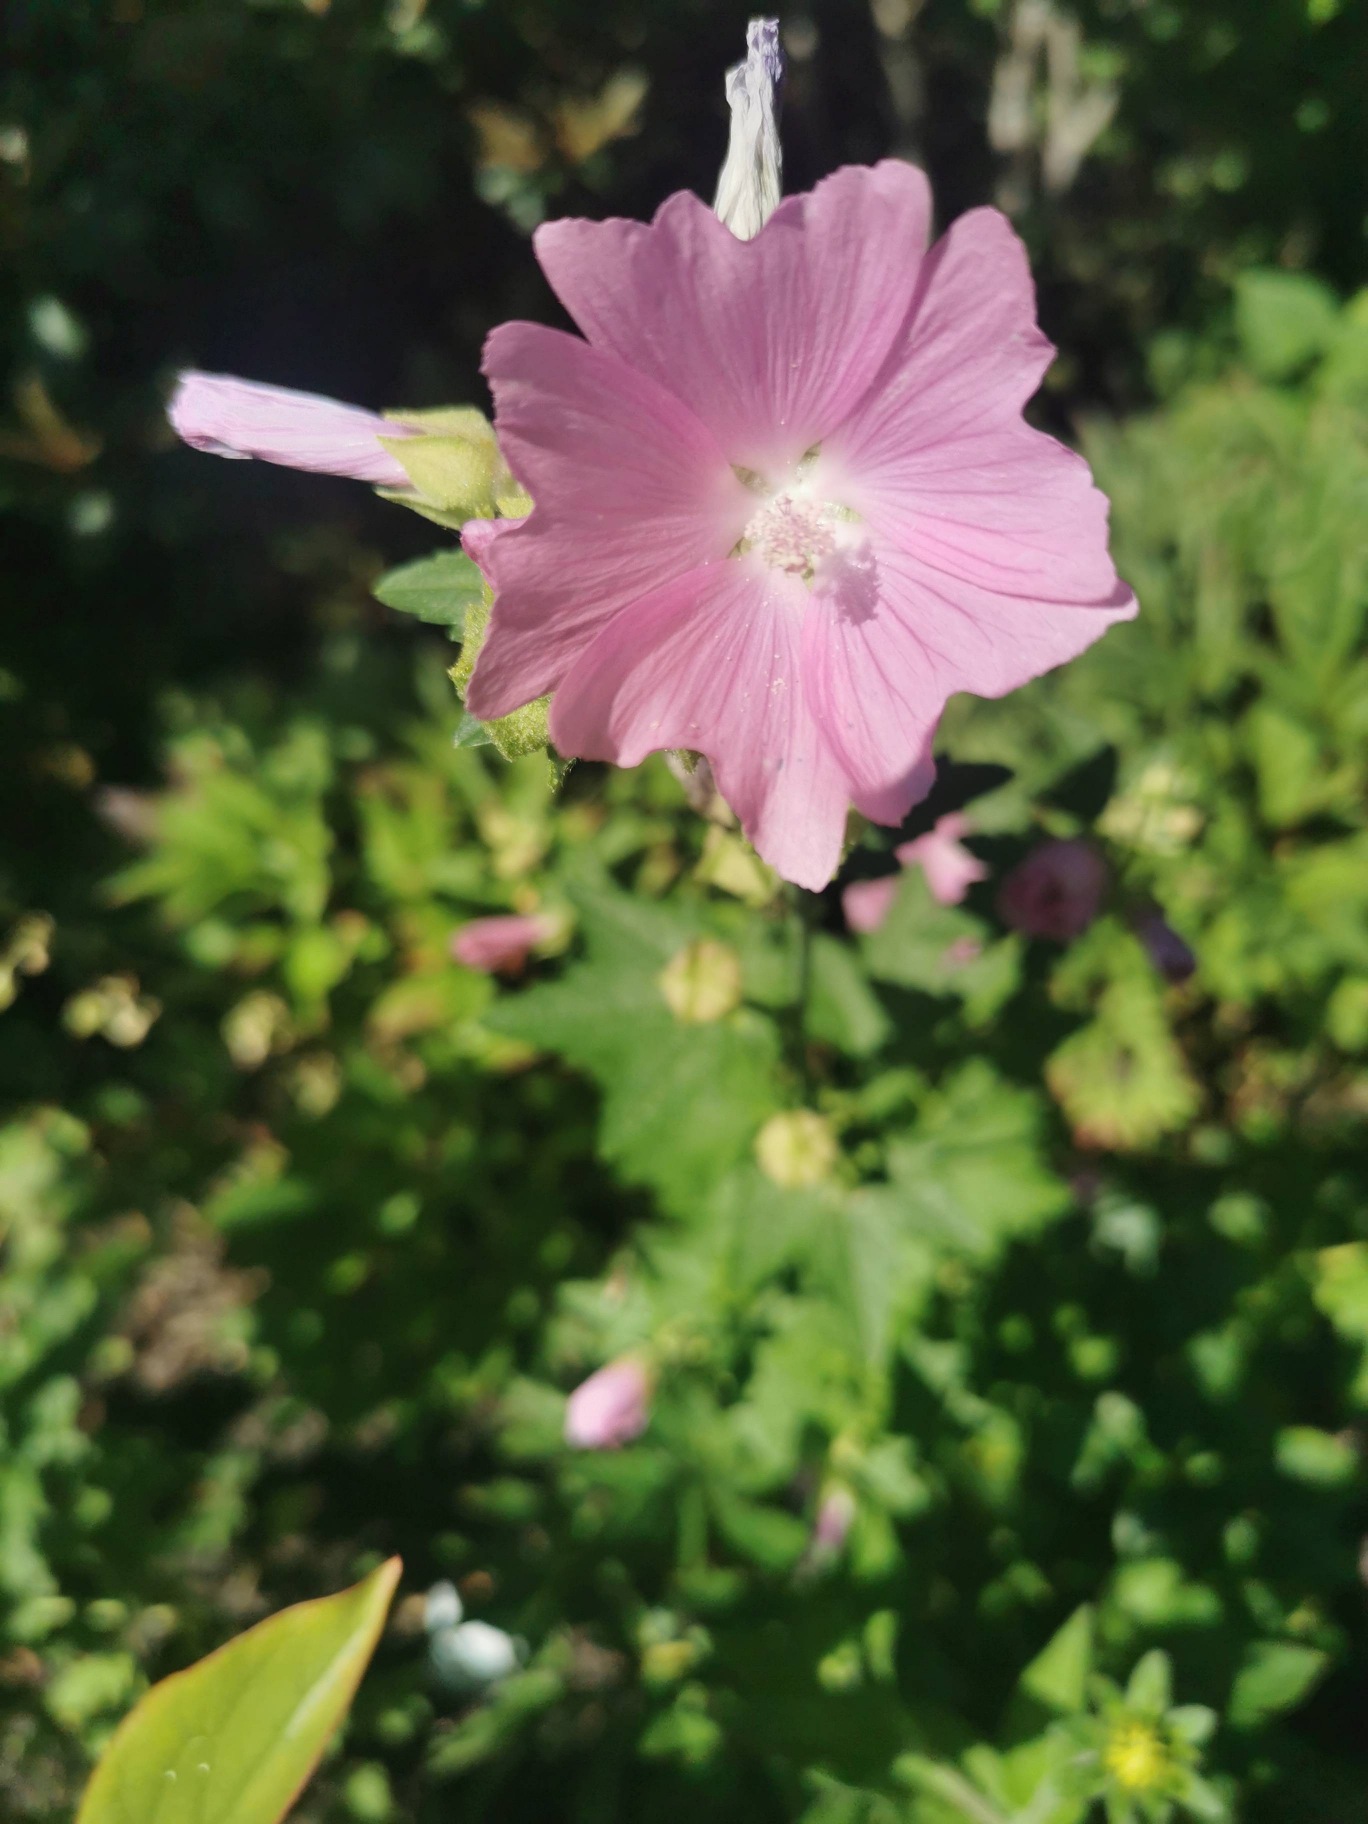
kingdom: Plantae
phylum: Tracheophyta
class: Magnoliopsida
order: Malvales
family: Malvaceae
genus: Malva
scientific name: Malva alcea
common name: Rosen-katost
